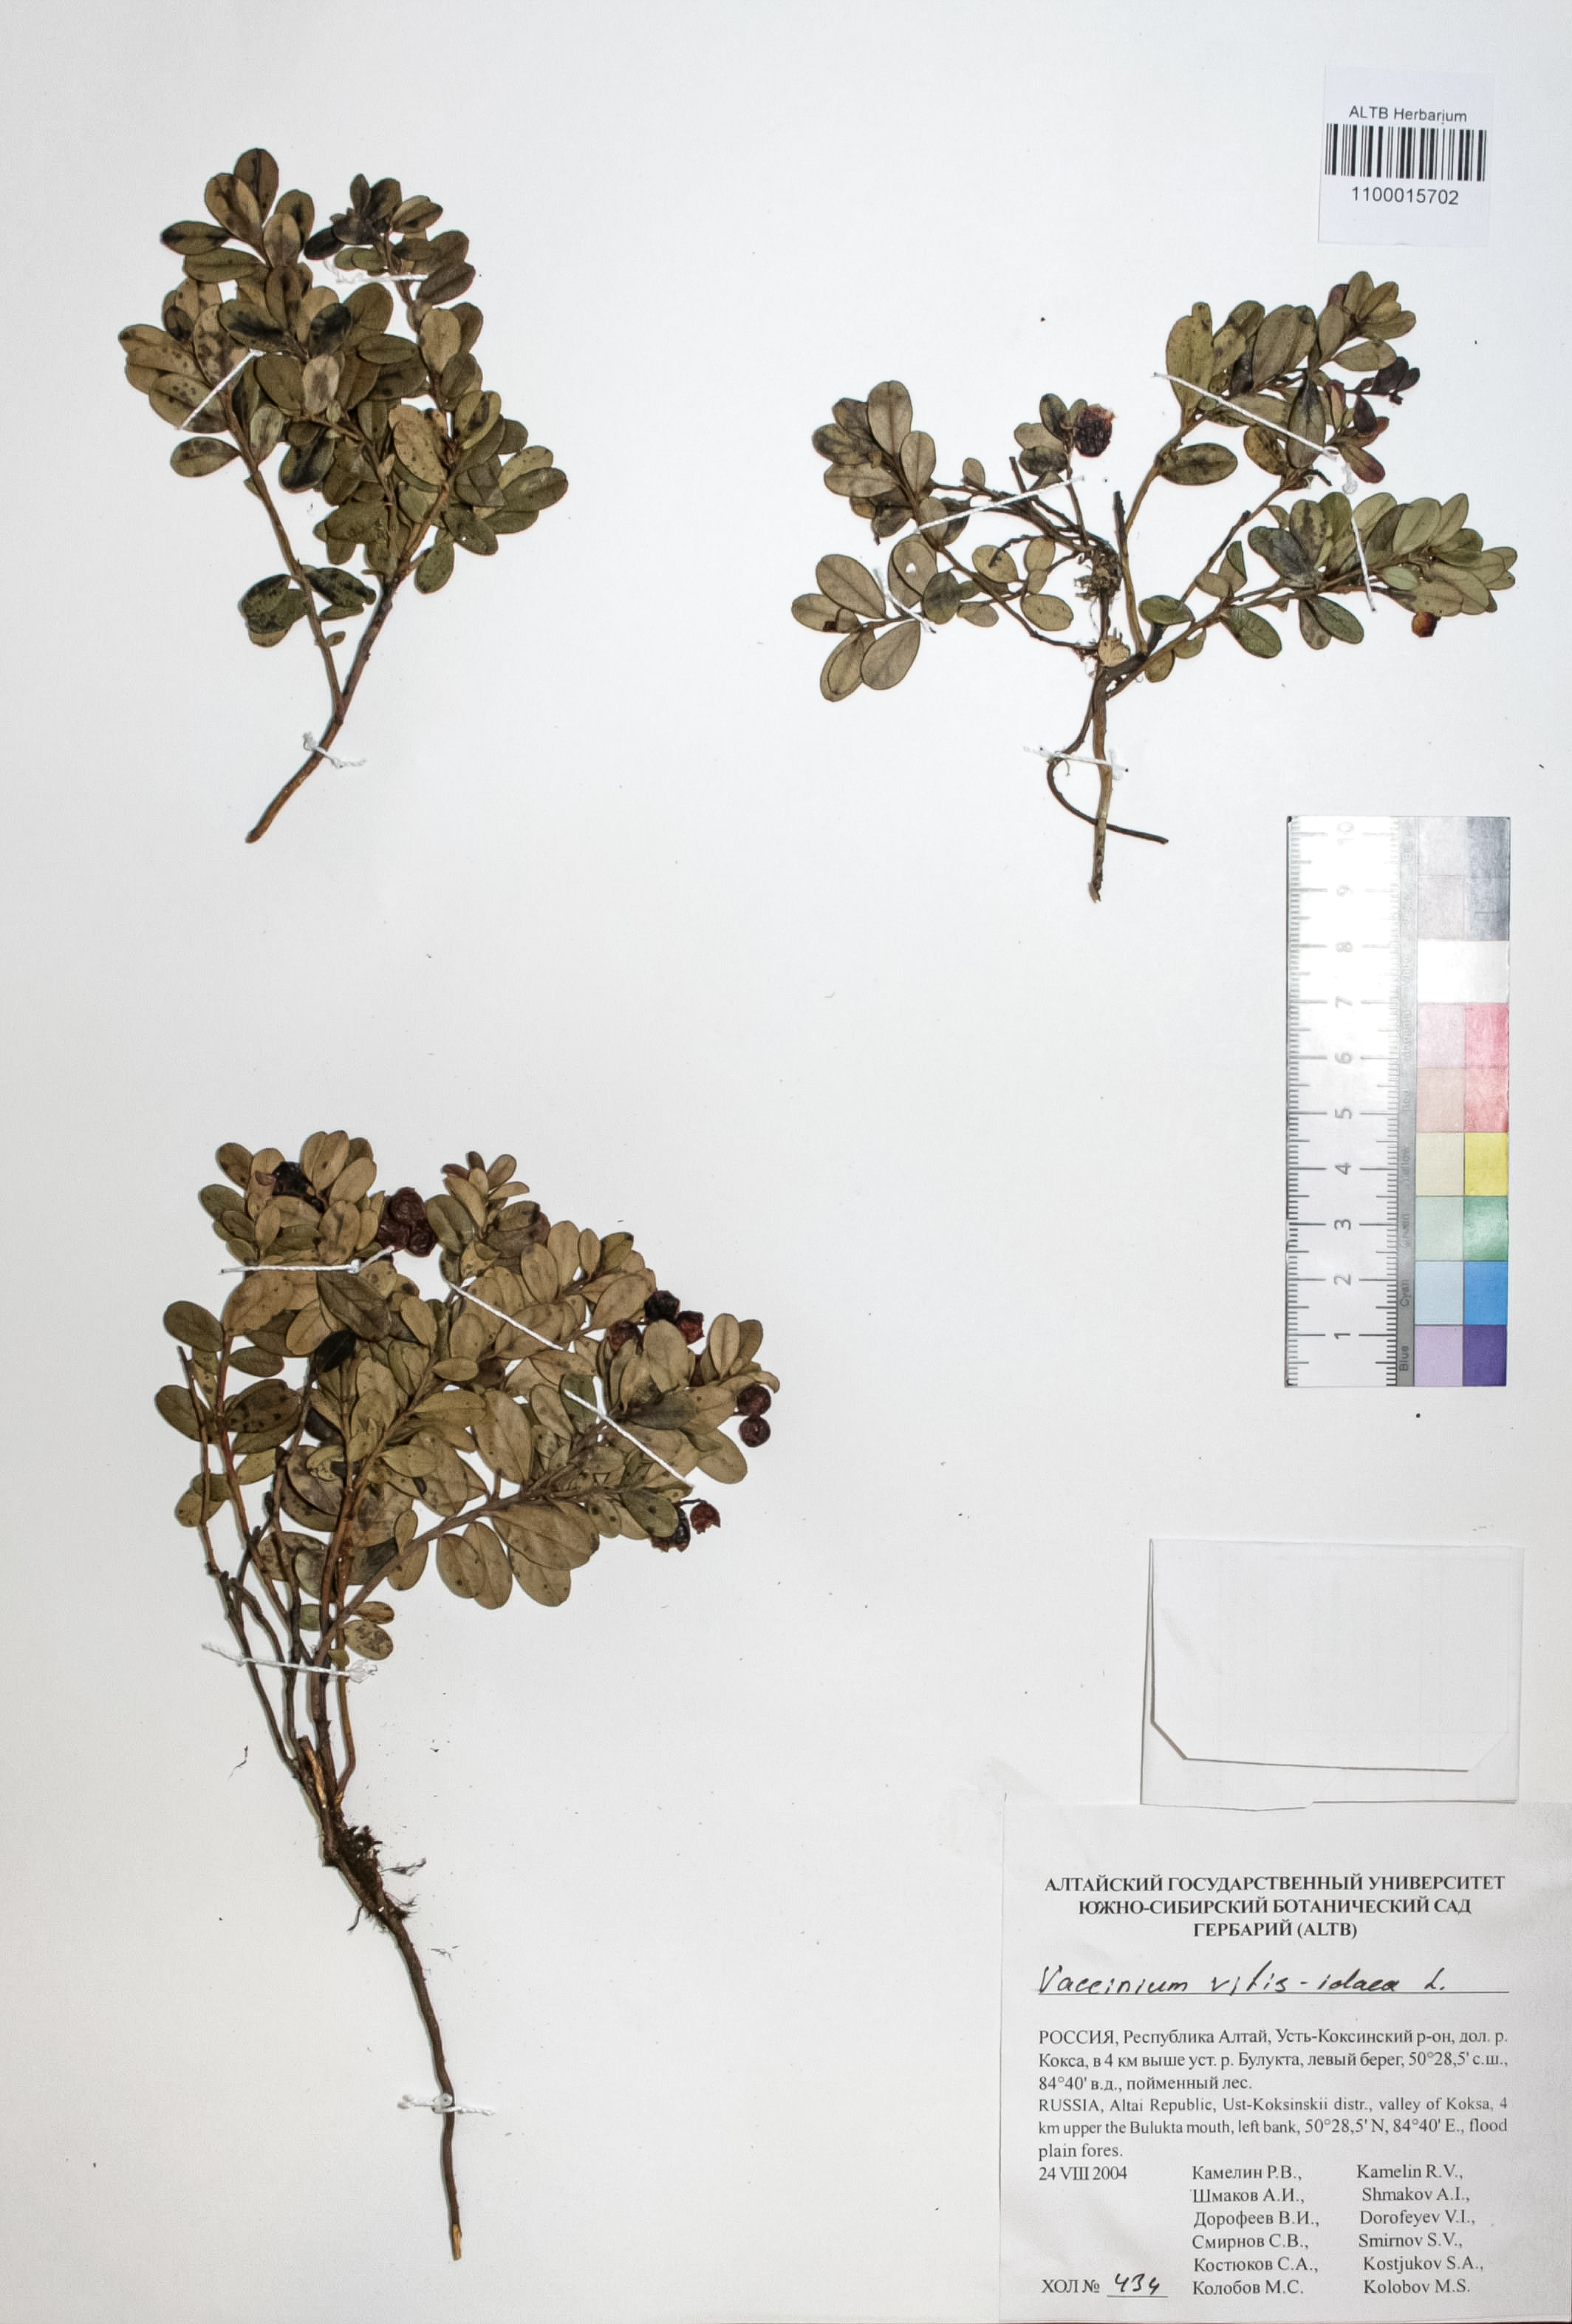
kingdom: Plantae
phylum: Tracheophyta
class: Magnoliopsida
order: Ericales
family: Ericaceae
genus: Vaccinium
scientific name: Vaccinium vitis-idaea
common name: Cowberry
